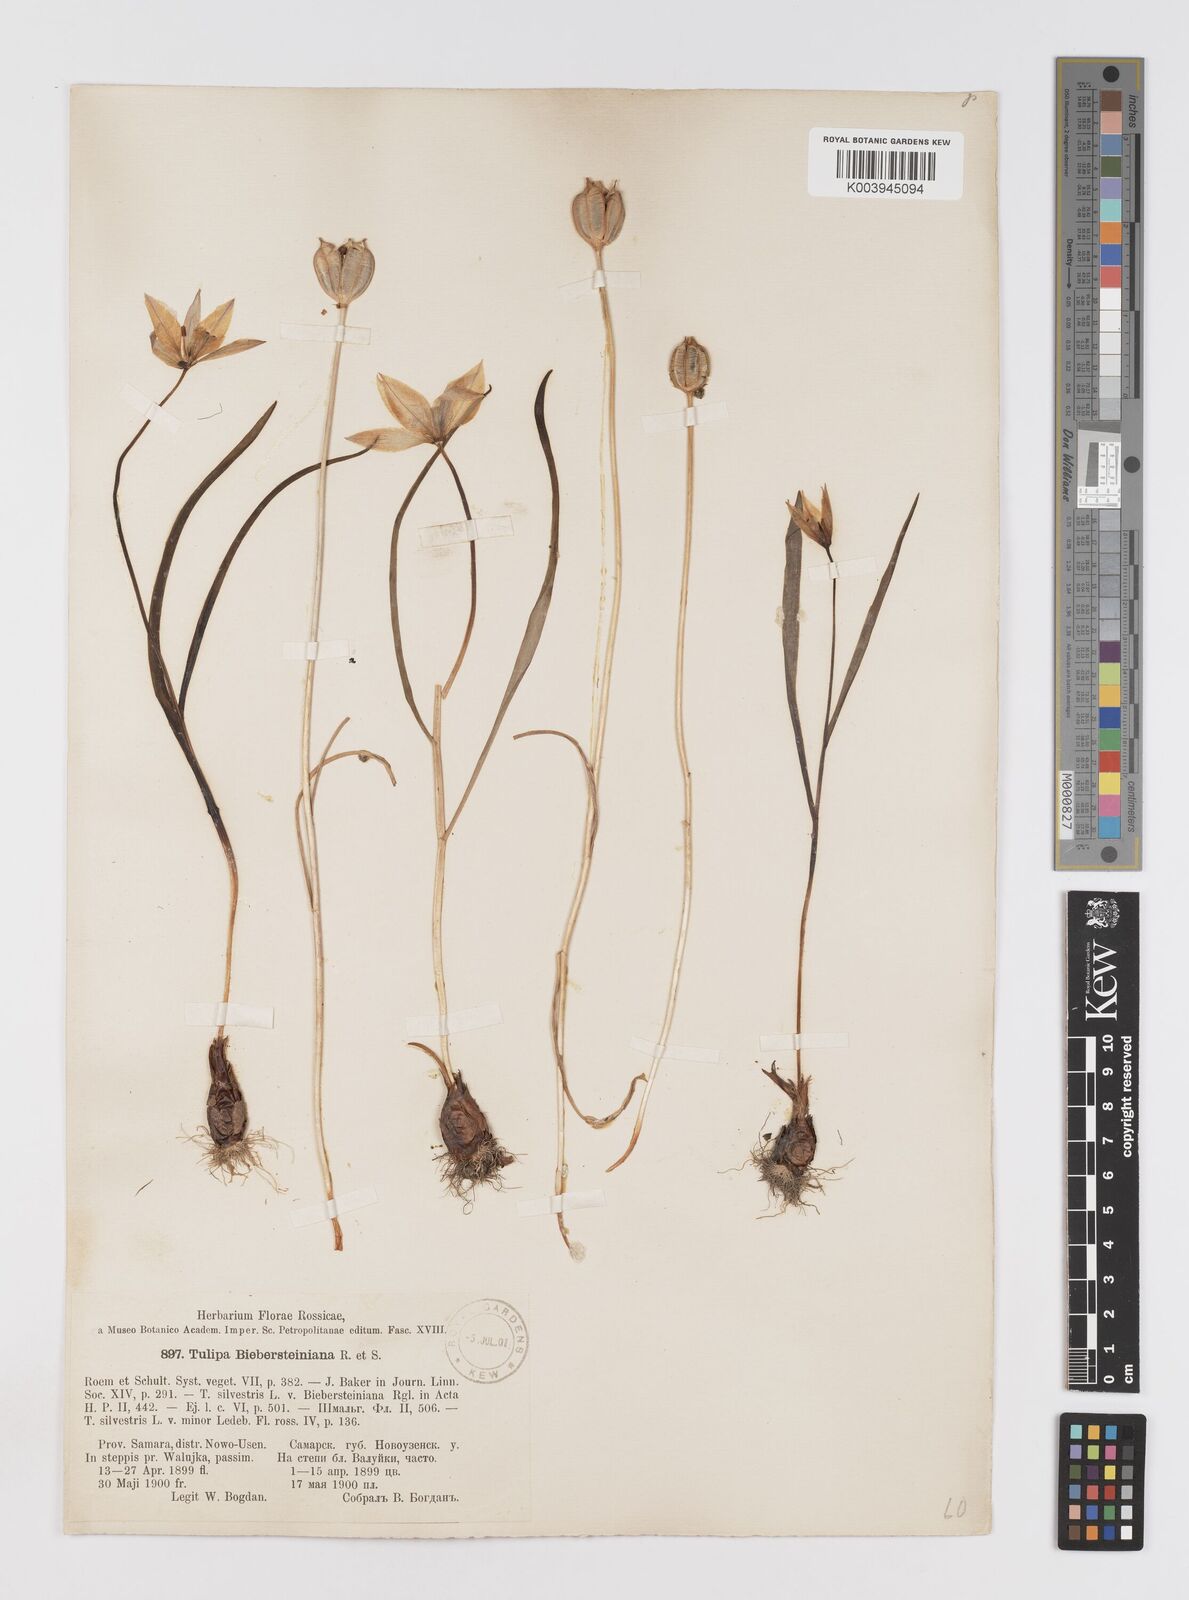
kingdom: Plantae
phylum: Tracheophyta
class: Liliopsida
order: Liliales
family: Liliaceae
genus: Tulipa
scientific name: Tulipa sylvestris
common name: Wild tulip
